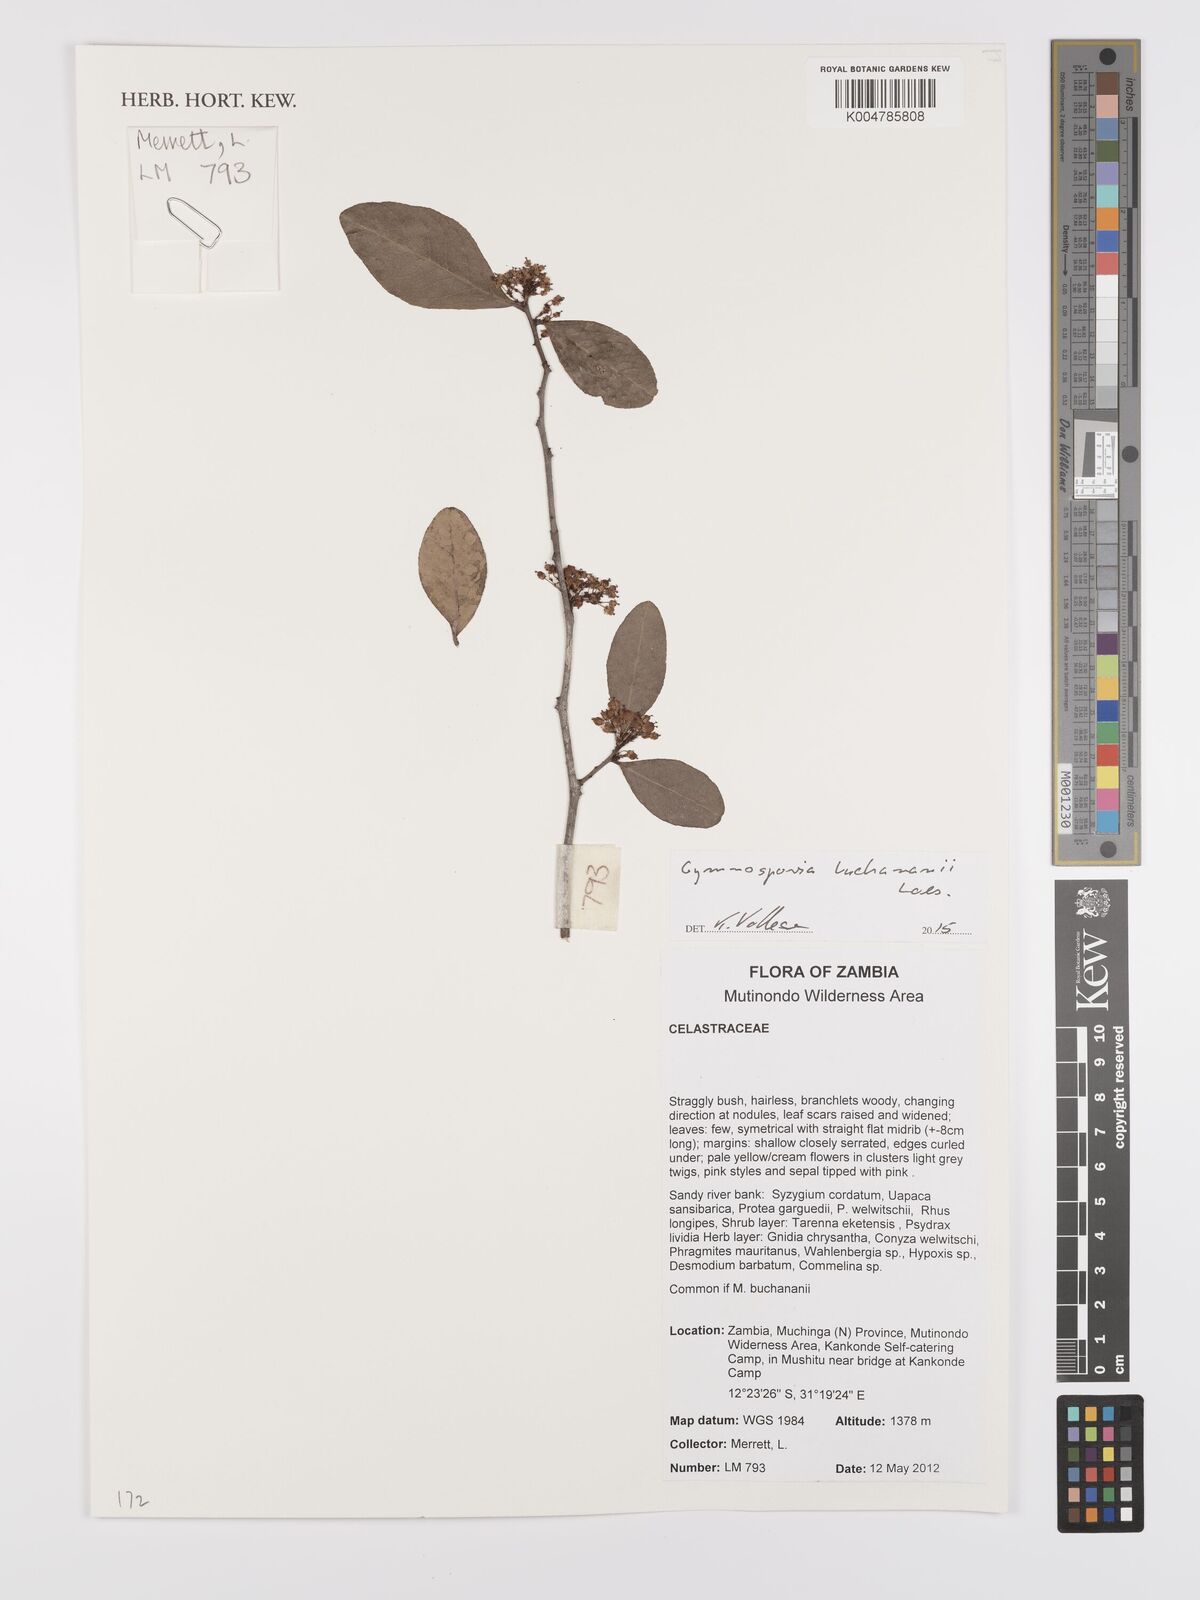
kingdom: Plantae
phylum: Tracheophyta
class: Magnoliopsida
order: Celastrales
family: Celastraceae
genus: Gymnosporia
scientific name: Gymnosporia buchananii
